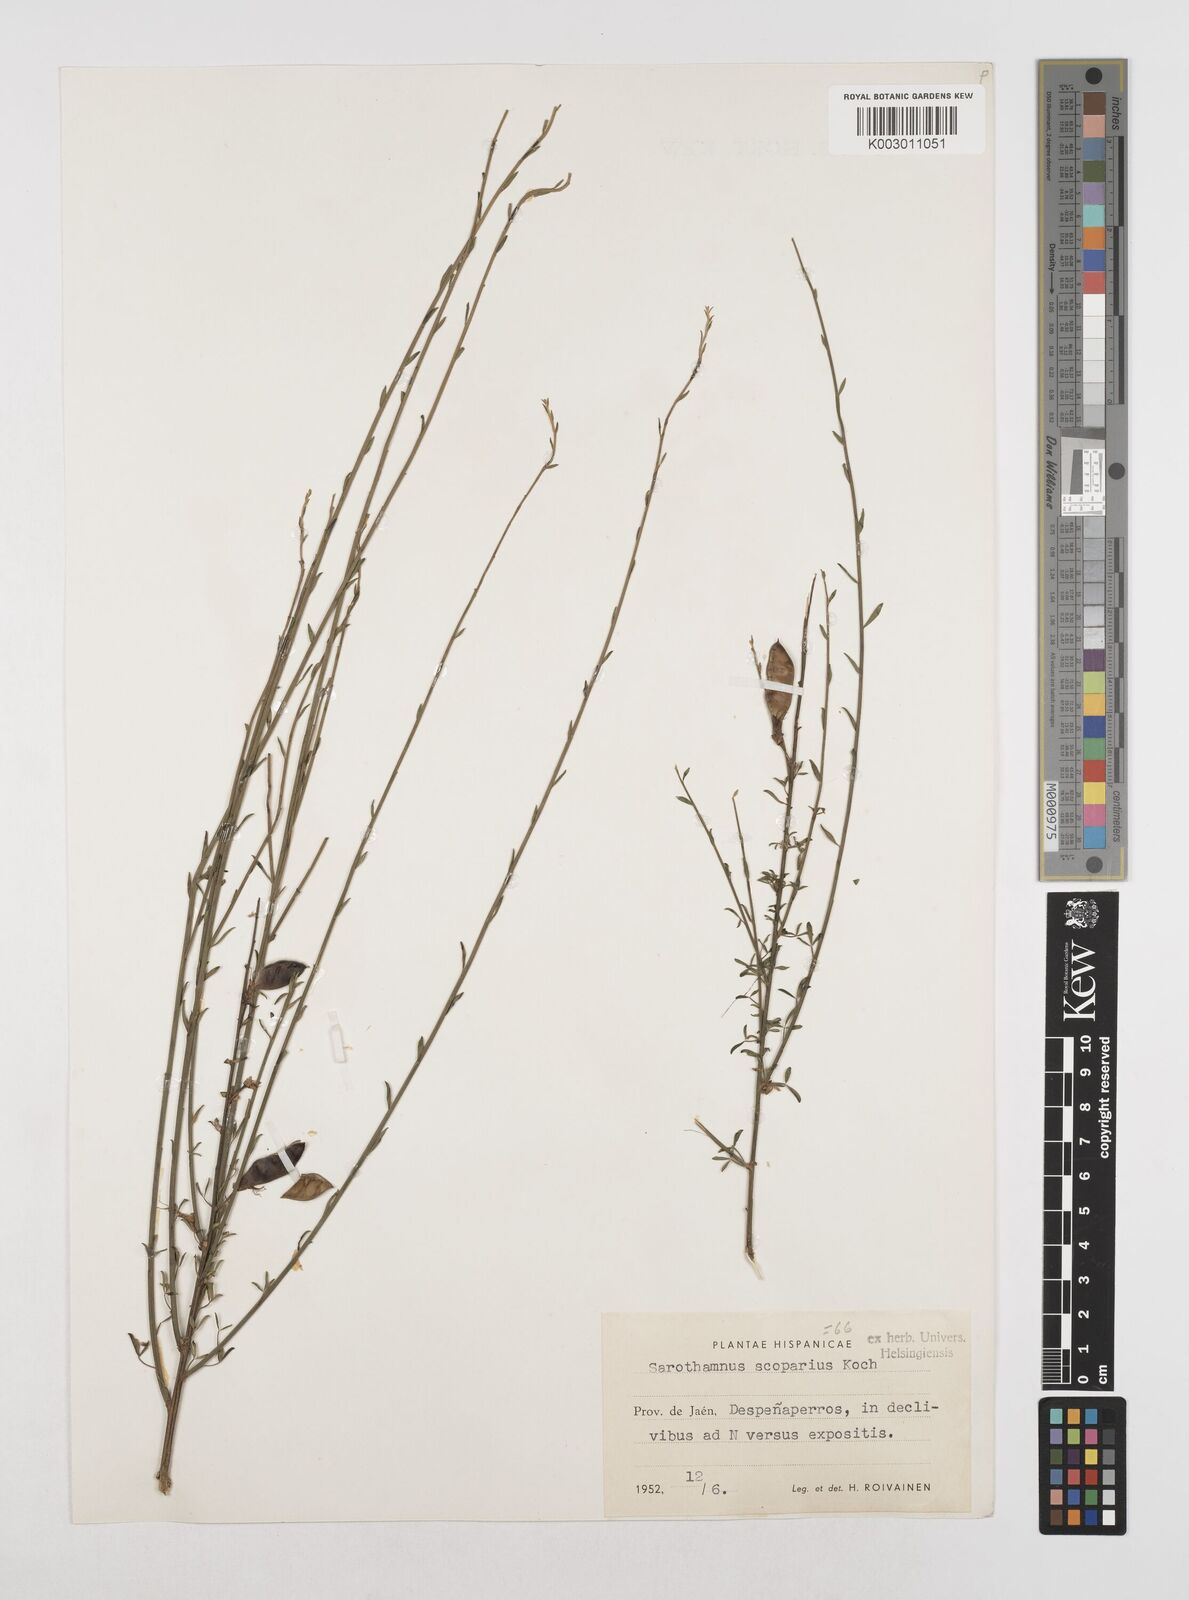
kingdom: Plantae
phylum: Tracheophyta
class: Magnoliopsida
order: Fabales
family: Fabaceae
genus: Cytisus
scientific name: Cytisus scoparius
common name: Scotch broom
